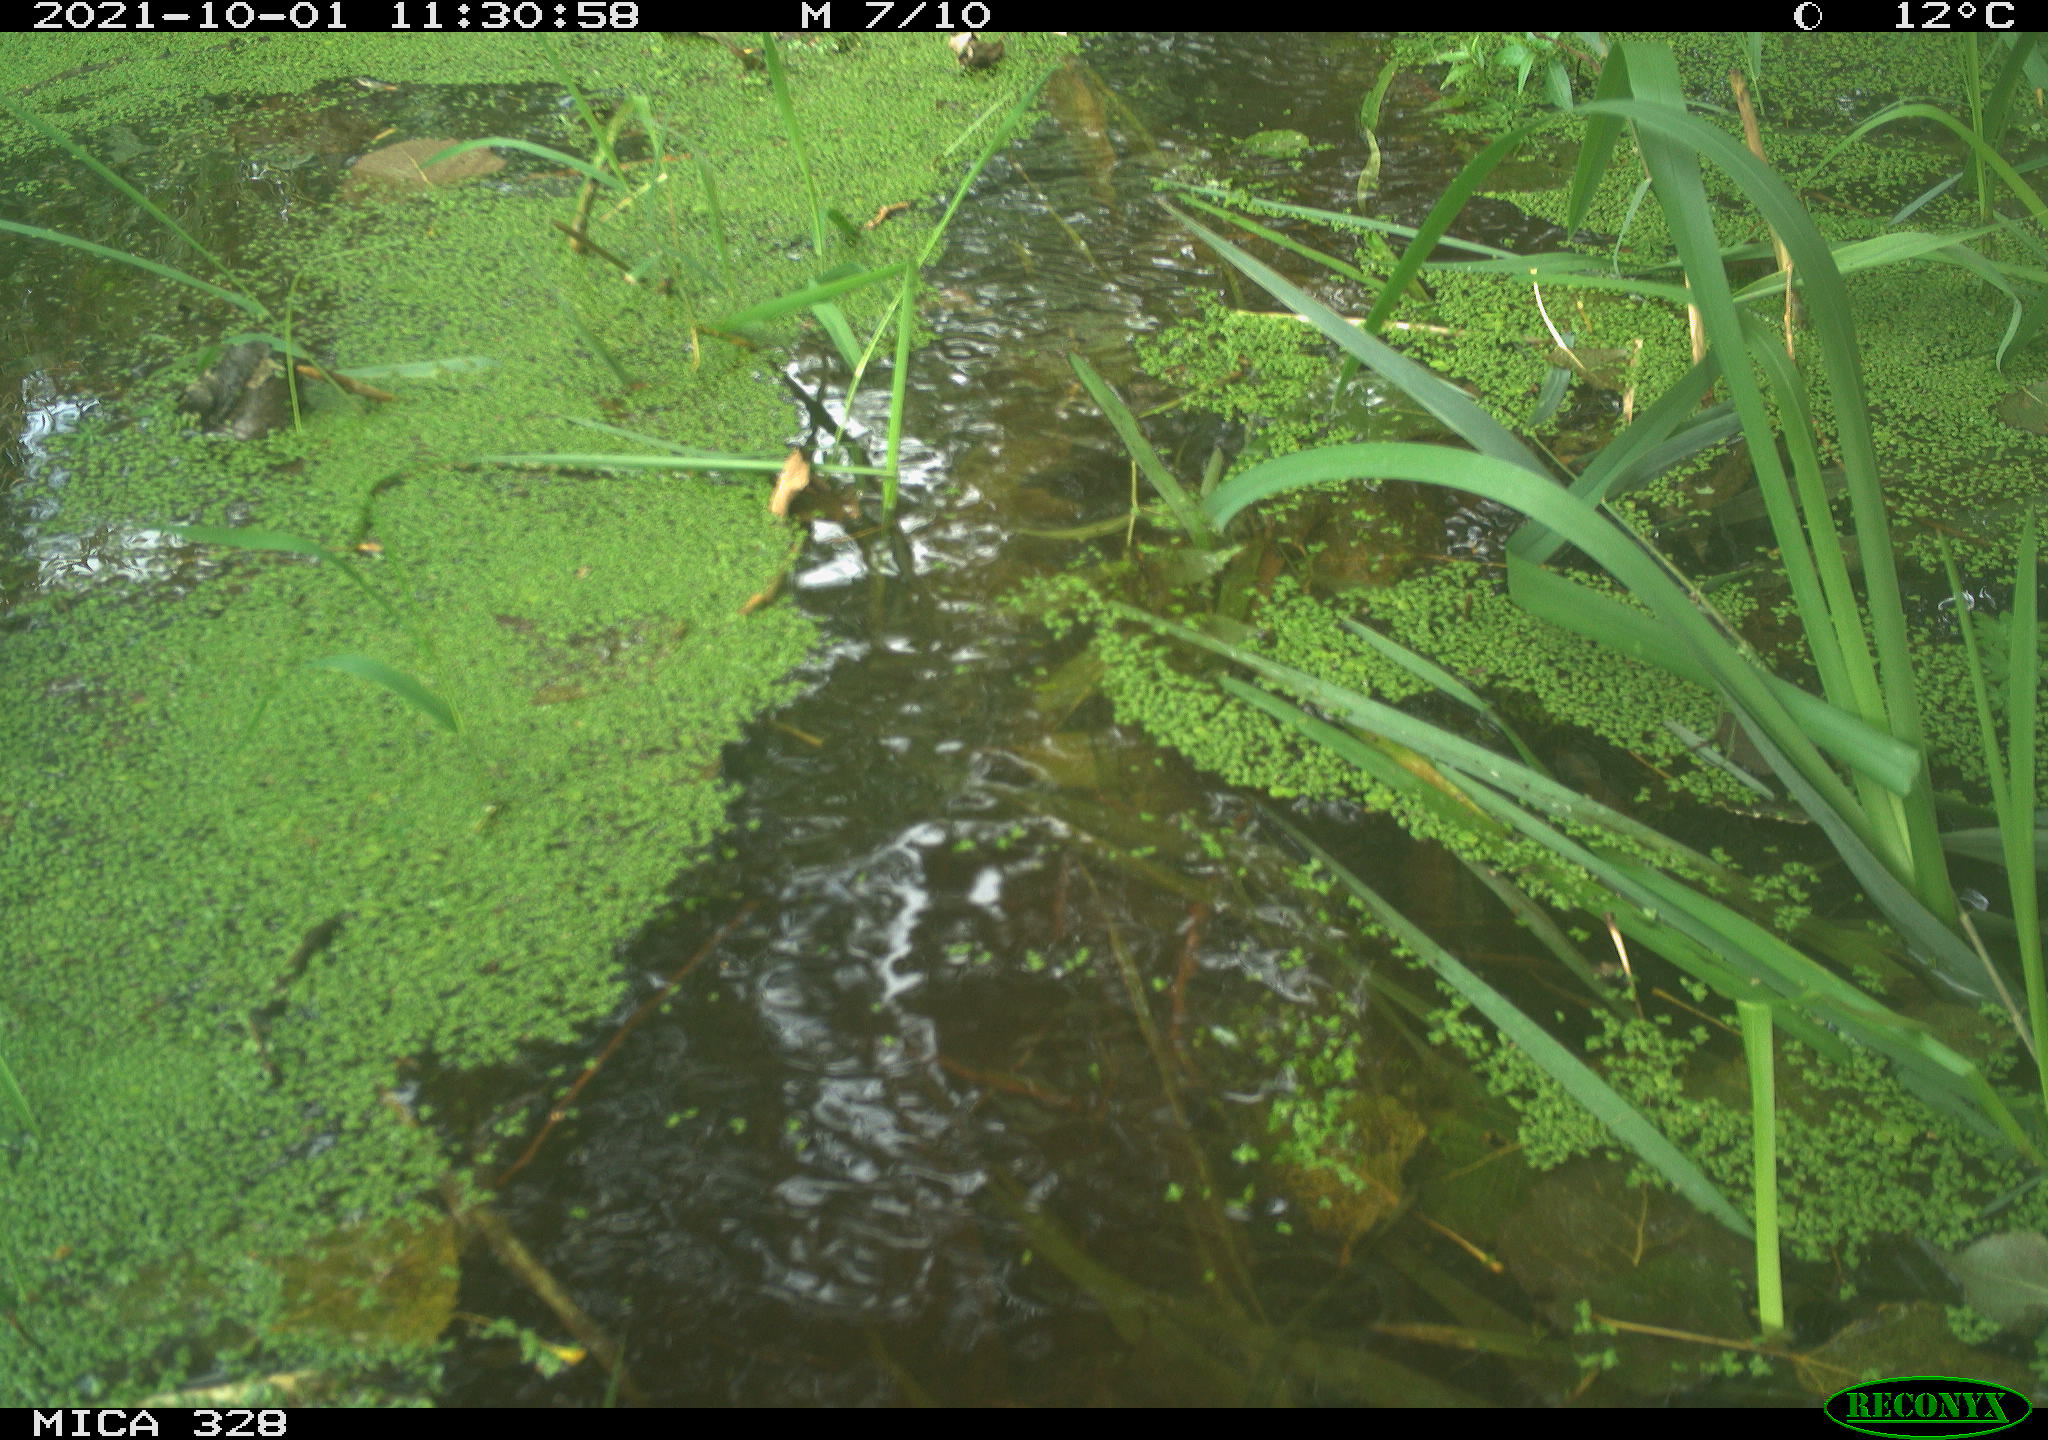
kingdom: Animalia
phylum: Chordata
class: Mammalia
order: Rodentia
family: Cricetidae
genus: Ondatra
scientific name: Ondatra zibethicus
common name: Muskrat
